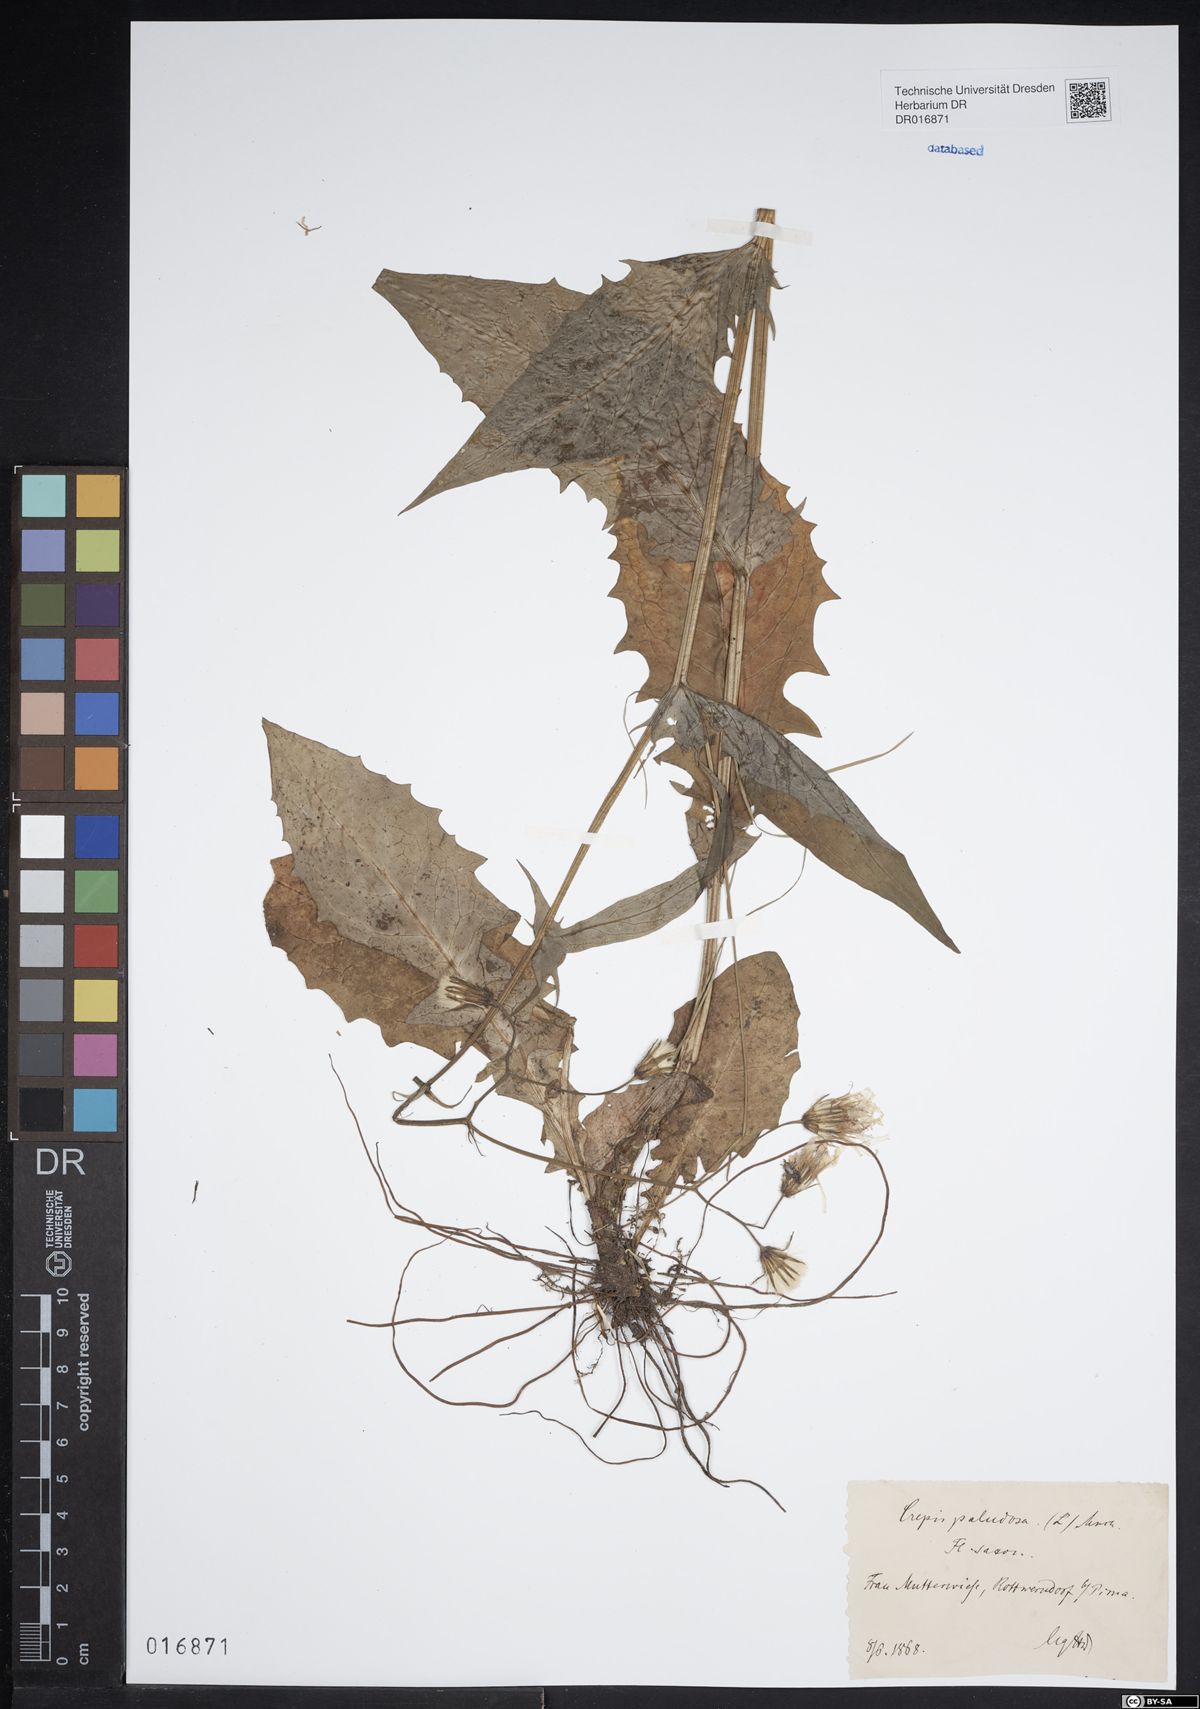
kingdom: Plantae
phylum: Tracheophyta
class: Magnoliopsida
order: Asterales
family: Asteraceae
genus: Crepis
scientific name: Crepis paludosa
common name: Marsh hawk's-beard
